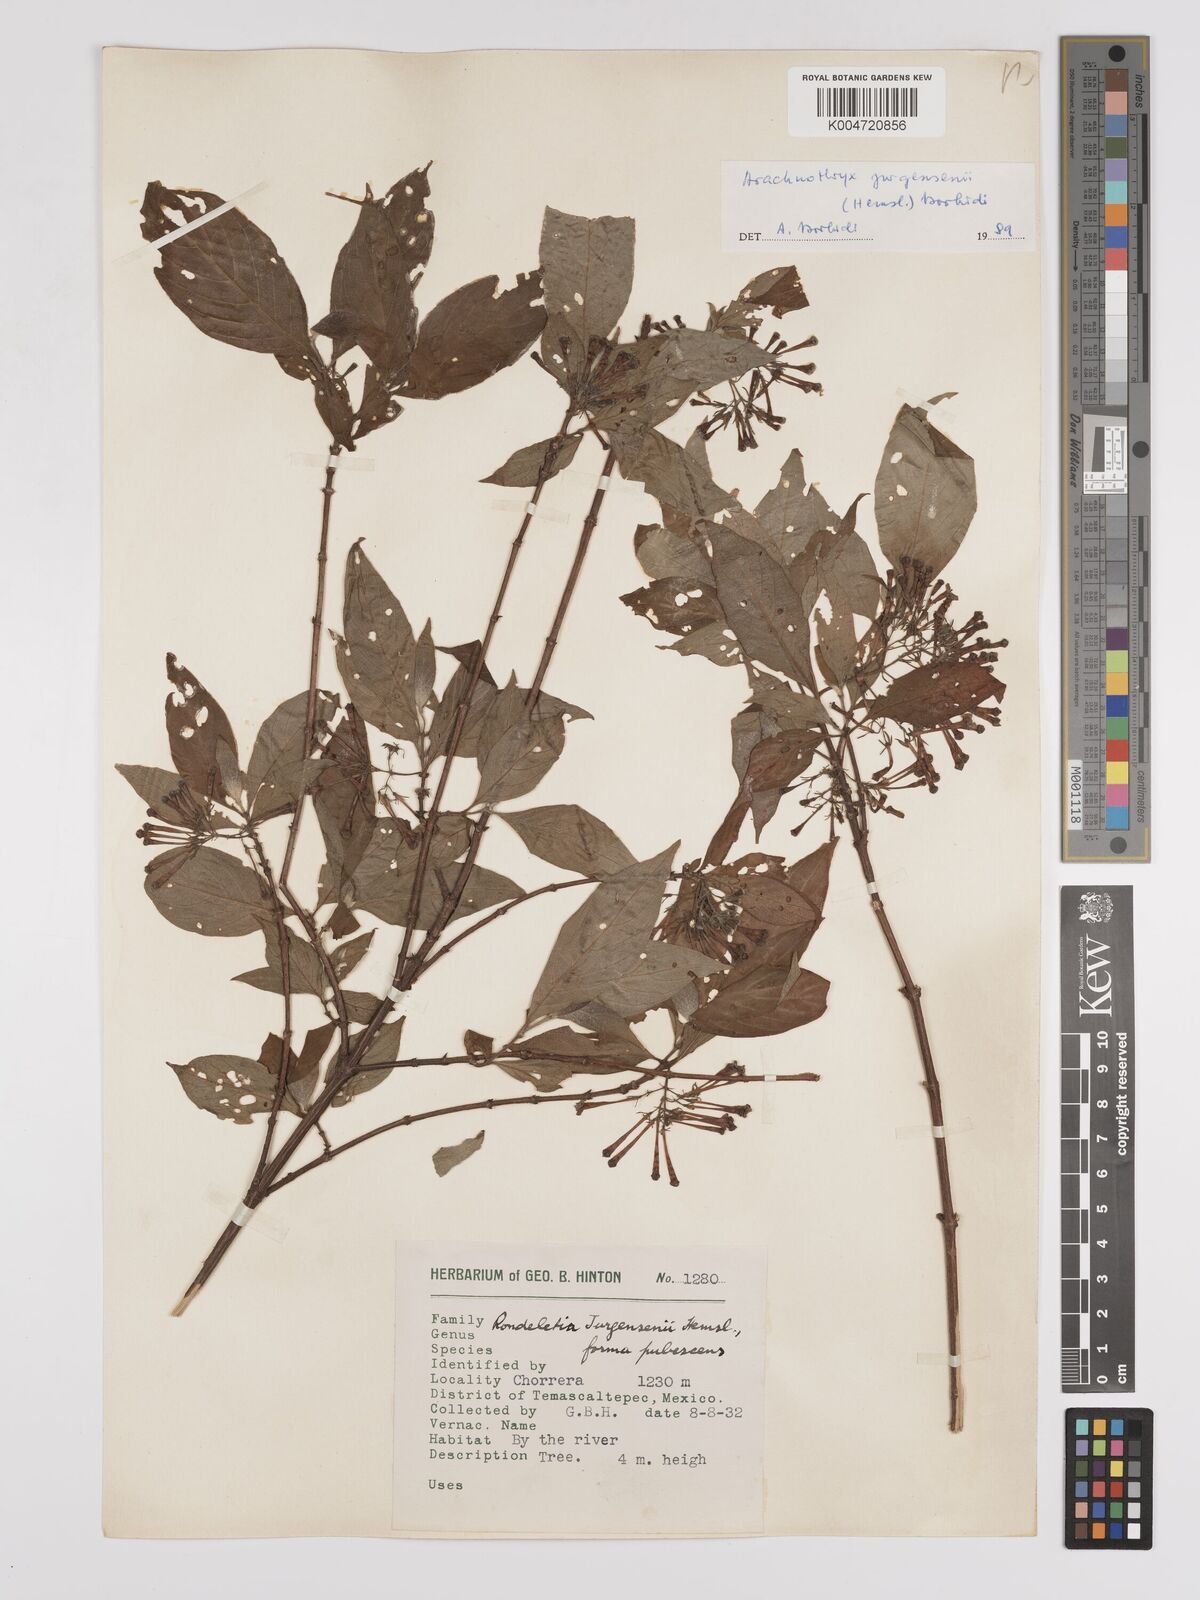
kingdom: Plantae
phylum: Tracheophyta
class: Magnoliopsida
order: Gentianales
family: Rubiaceae
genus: Arachnothryx
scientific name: Arachnothryx jurgensenii
